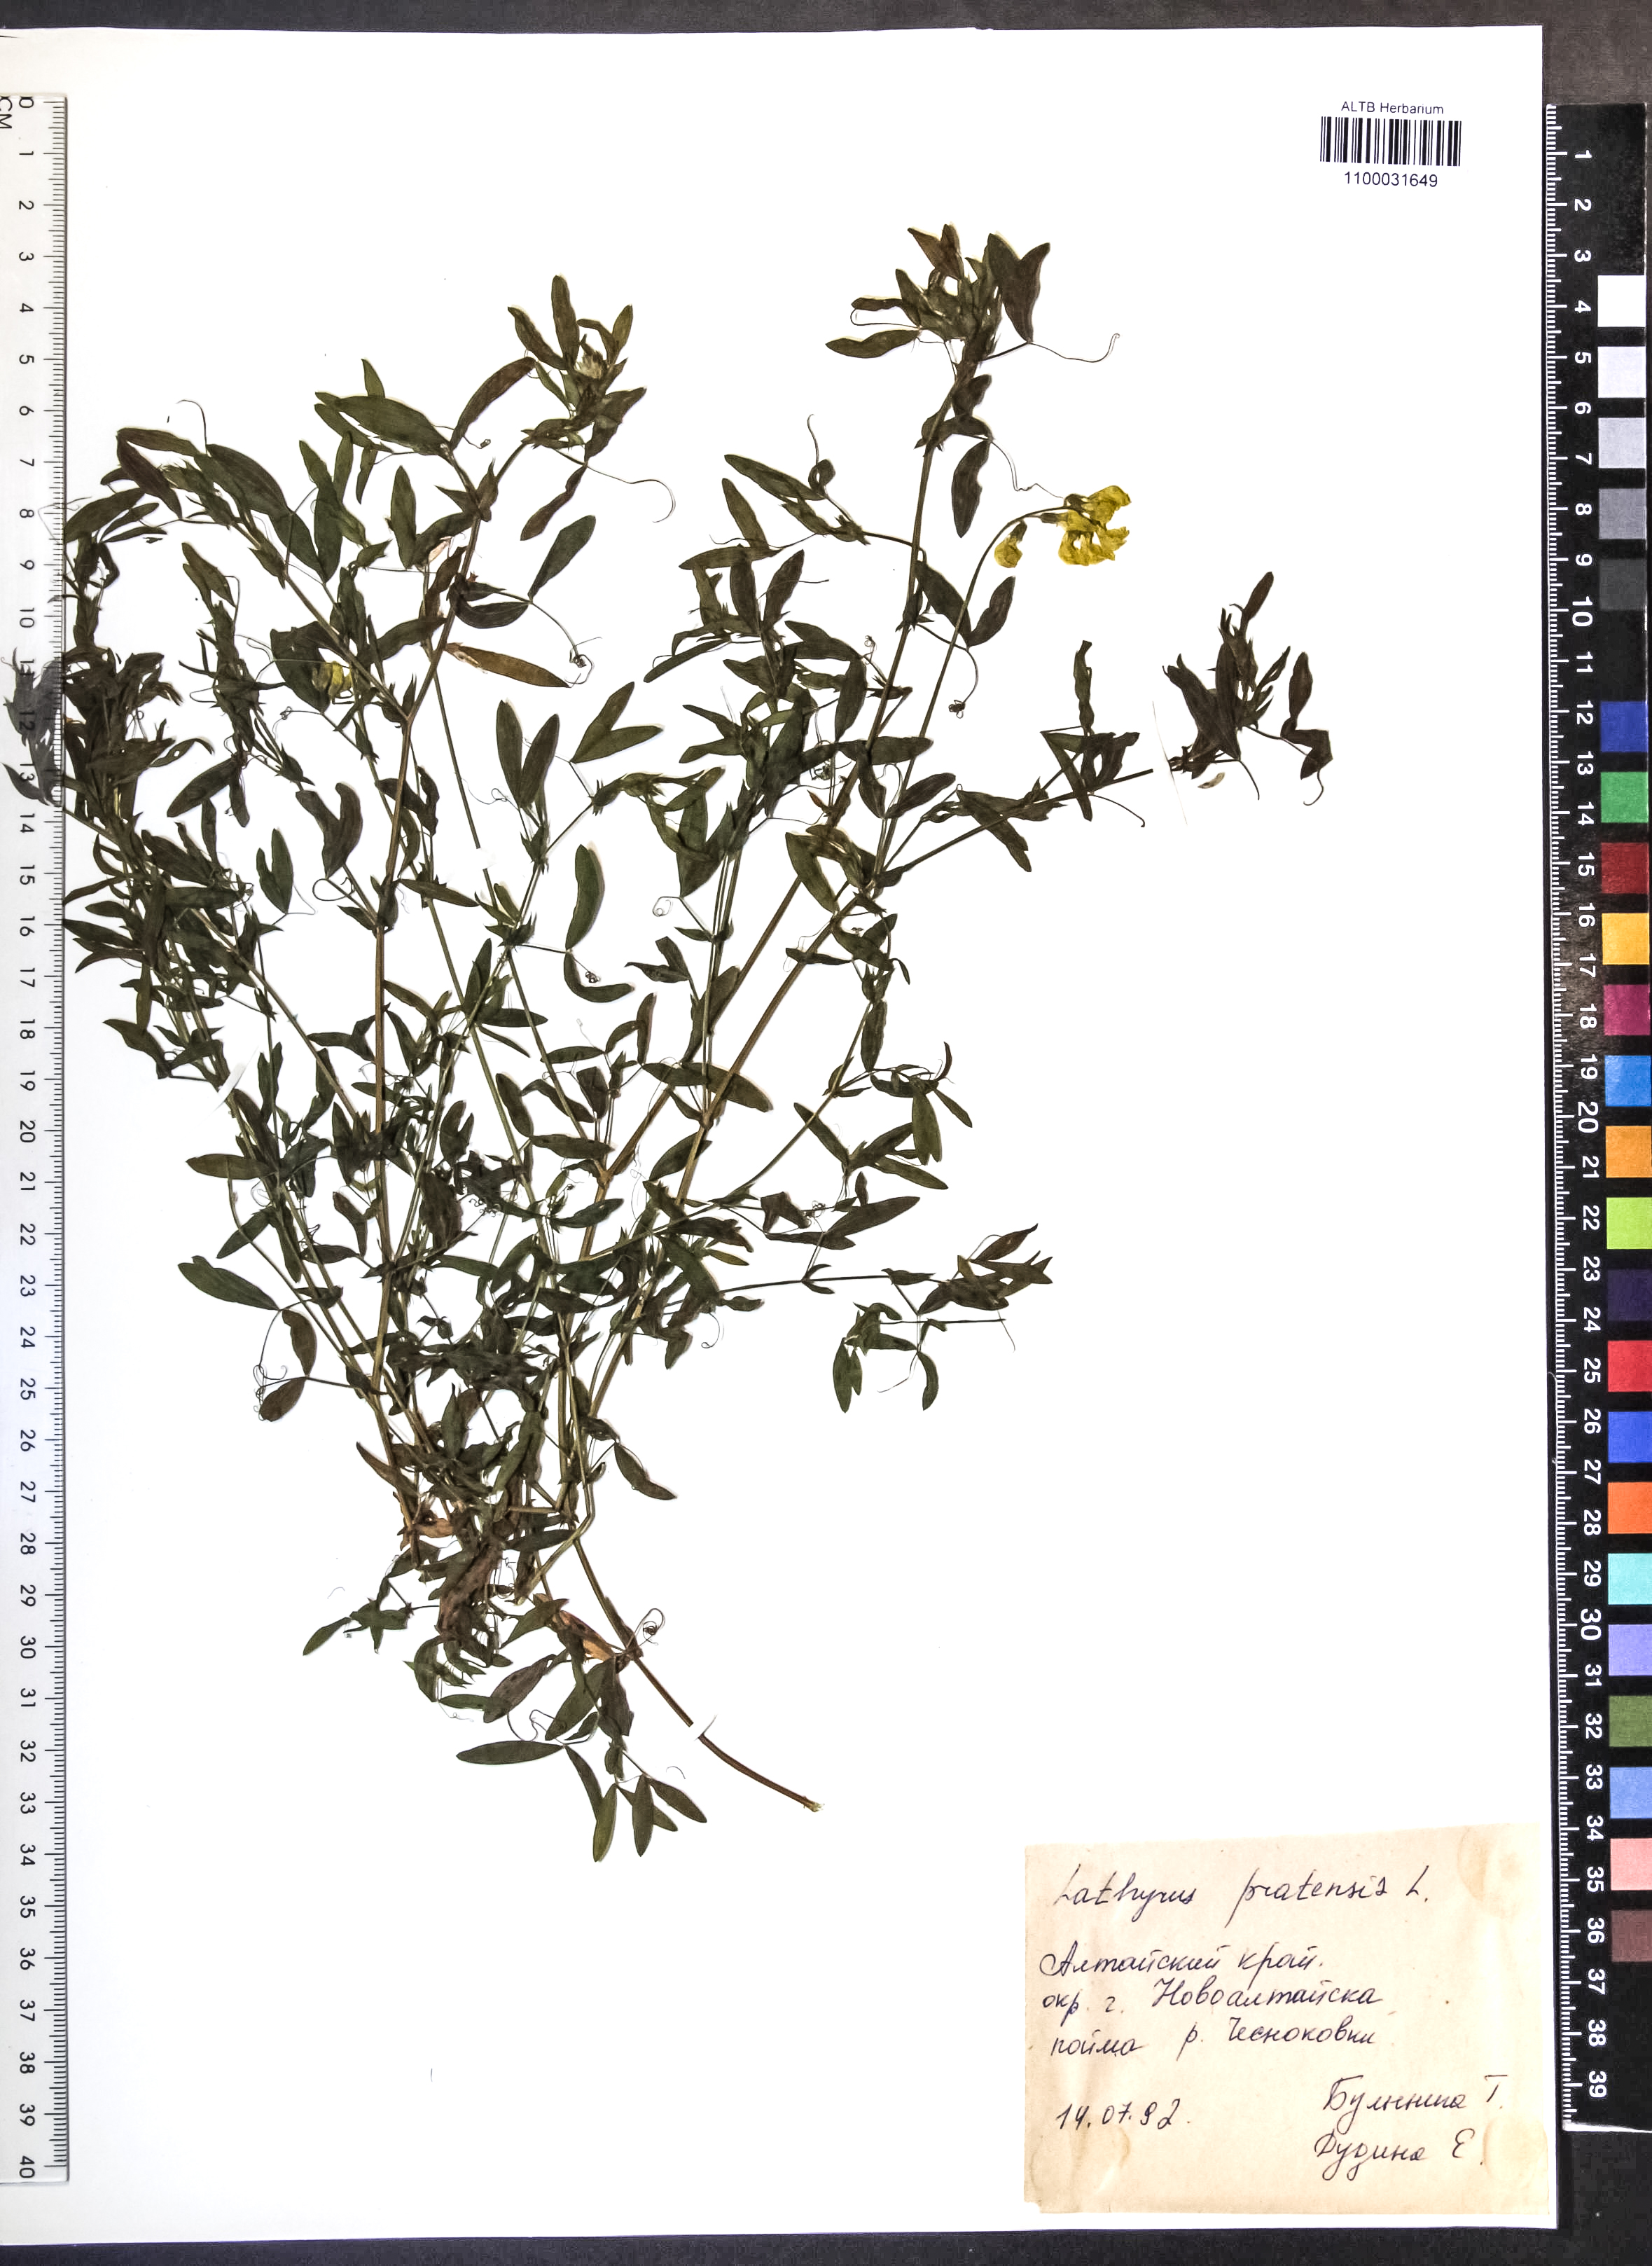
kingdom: Plantae
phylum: Tracheophyta
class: Magnoliopsida
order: Fabales
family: Fabaceae
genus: Lathyrus
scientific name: Lathyrus pratensis
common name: Meadow vetchling
